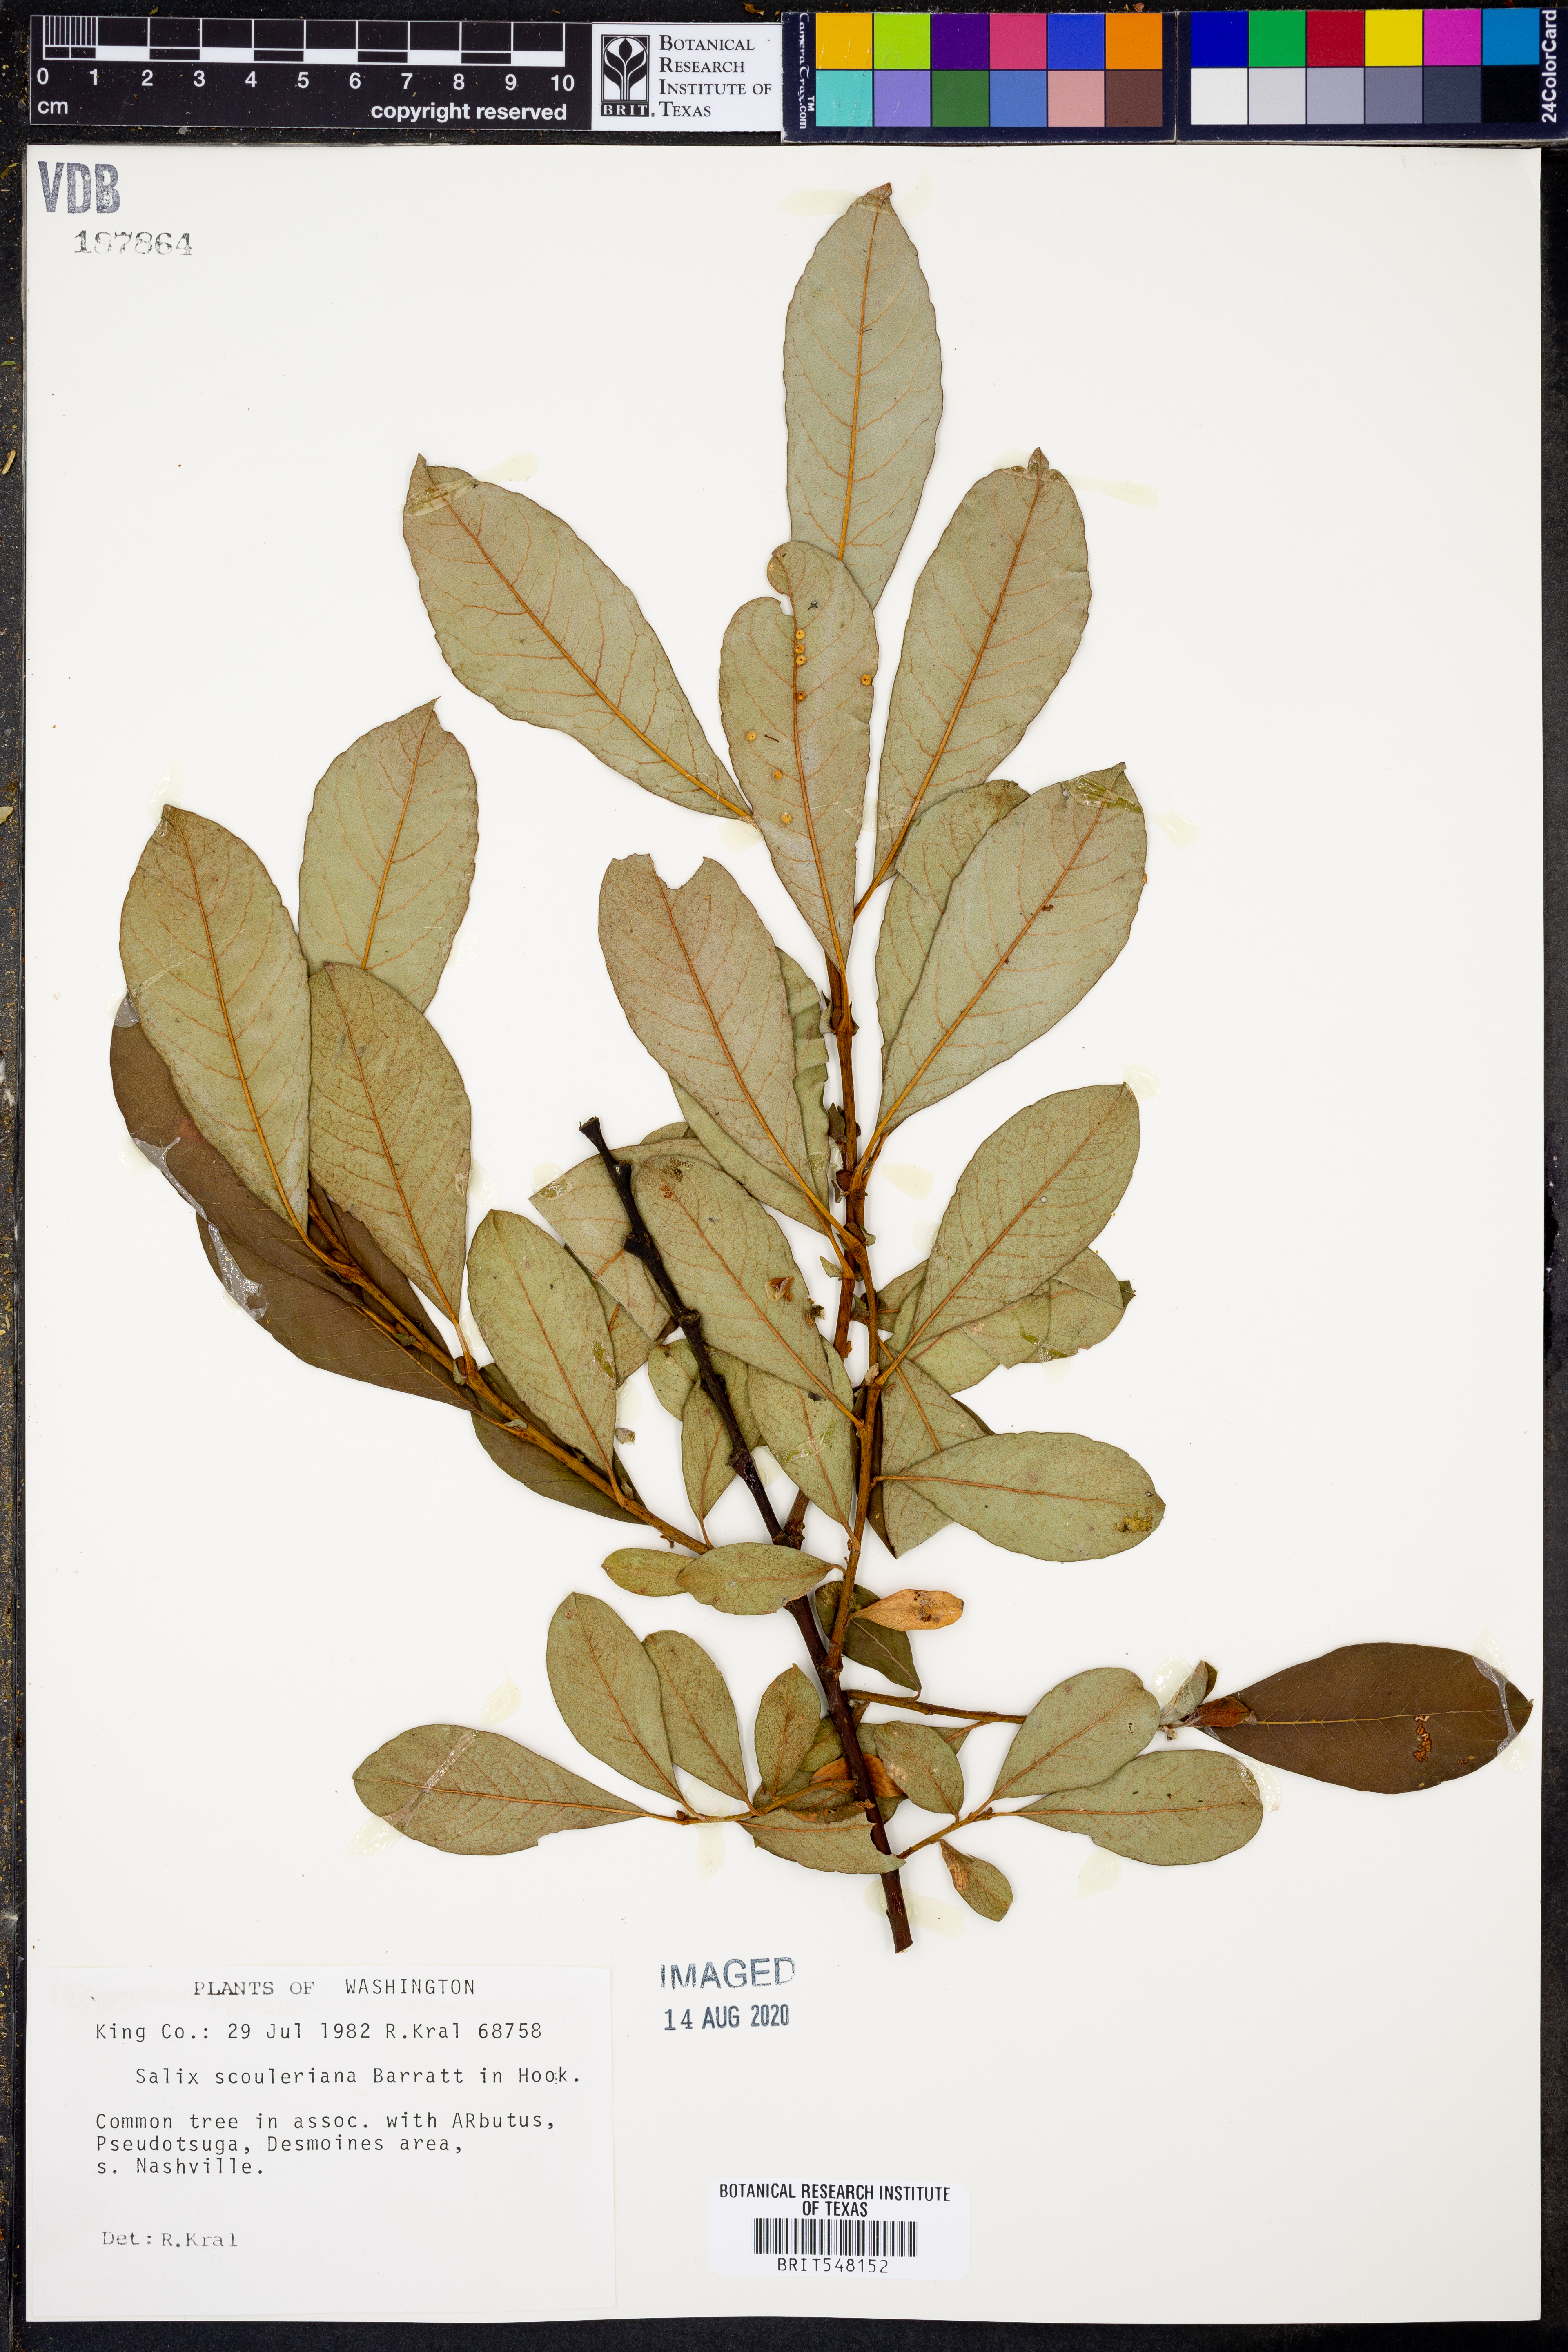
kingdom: Plantae
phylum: Tracheophyta
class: Magnoliopsida
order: Malpighiales
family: Salicaceae
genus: Salix
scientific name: Salix scouleriana
